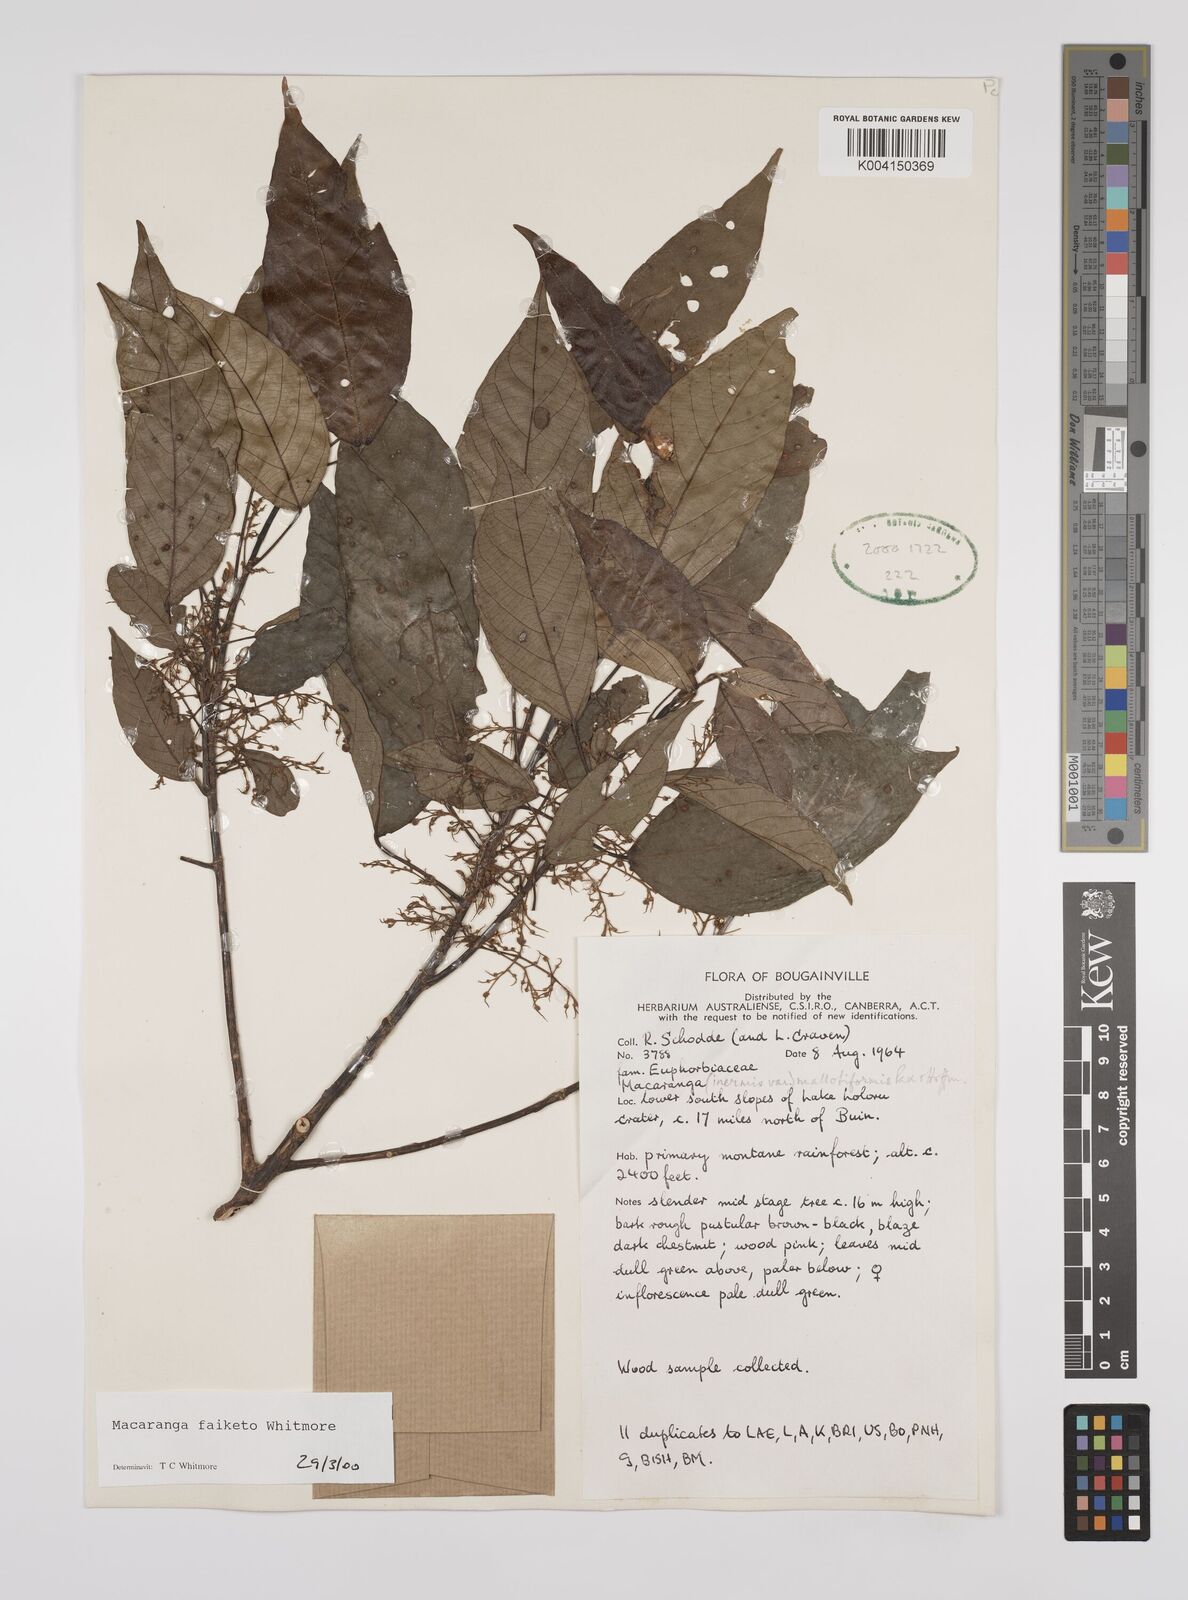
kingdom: Plantae
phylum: Tracheophyta
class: Magnoliopsida
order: Malpighiales
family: Euphorbiaceae
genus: Macaranga
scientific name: Macaranga faiketo
